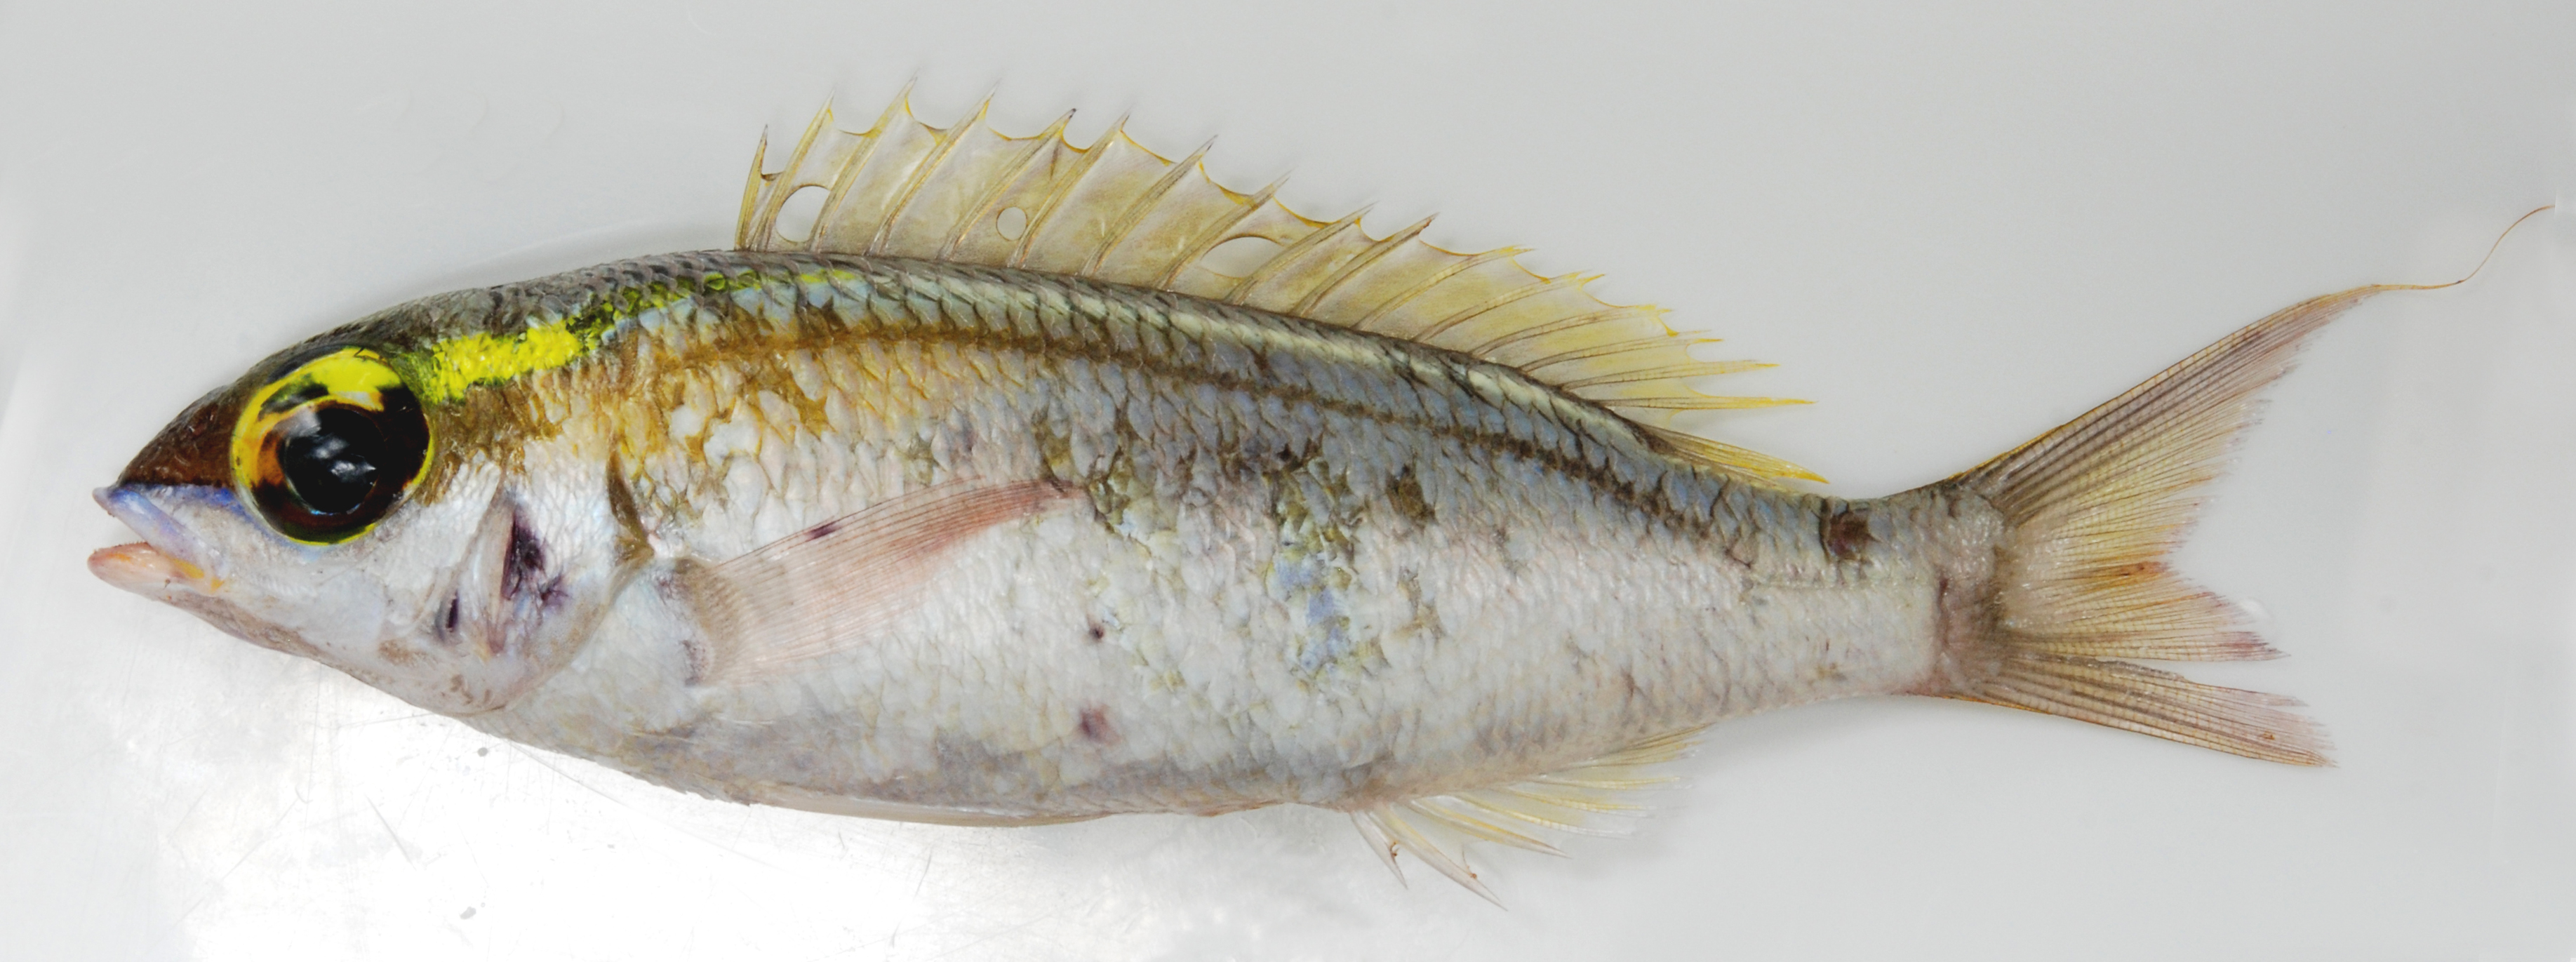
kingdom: Animalia
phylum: Chordata
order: Perciformes
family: Nemipteridae
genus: Scolopsis
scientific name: Scolopsis frenata
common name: Bridled monocle bream
